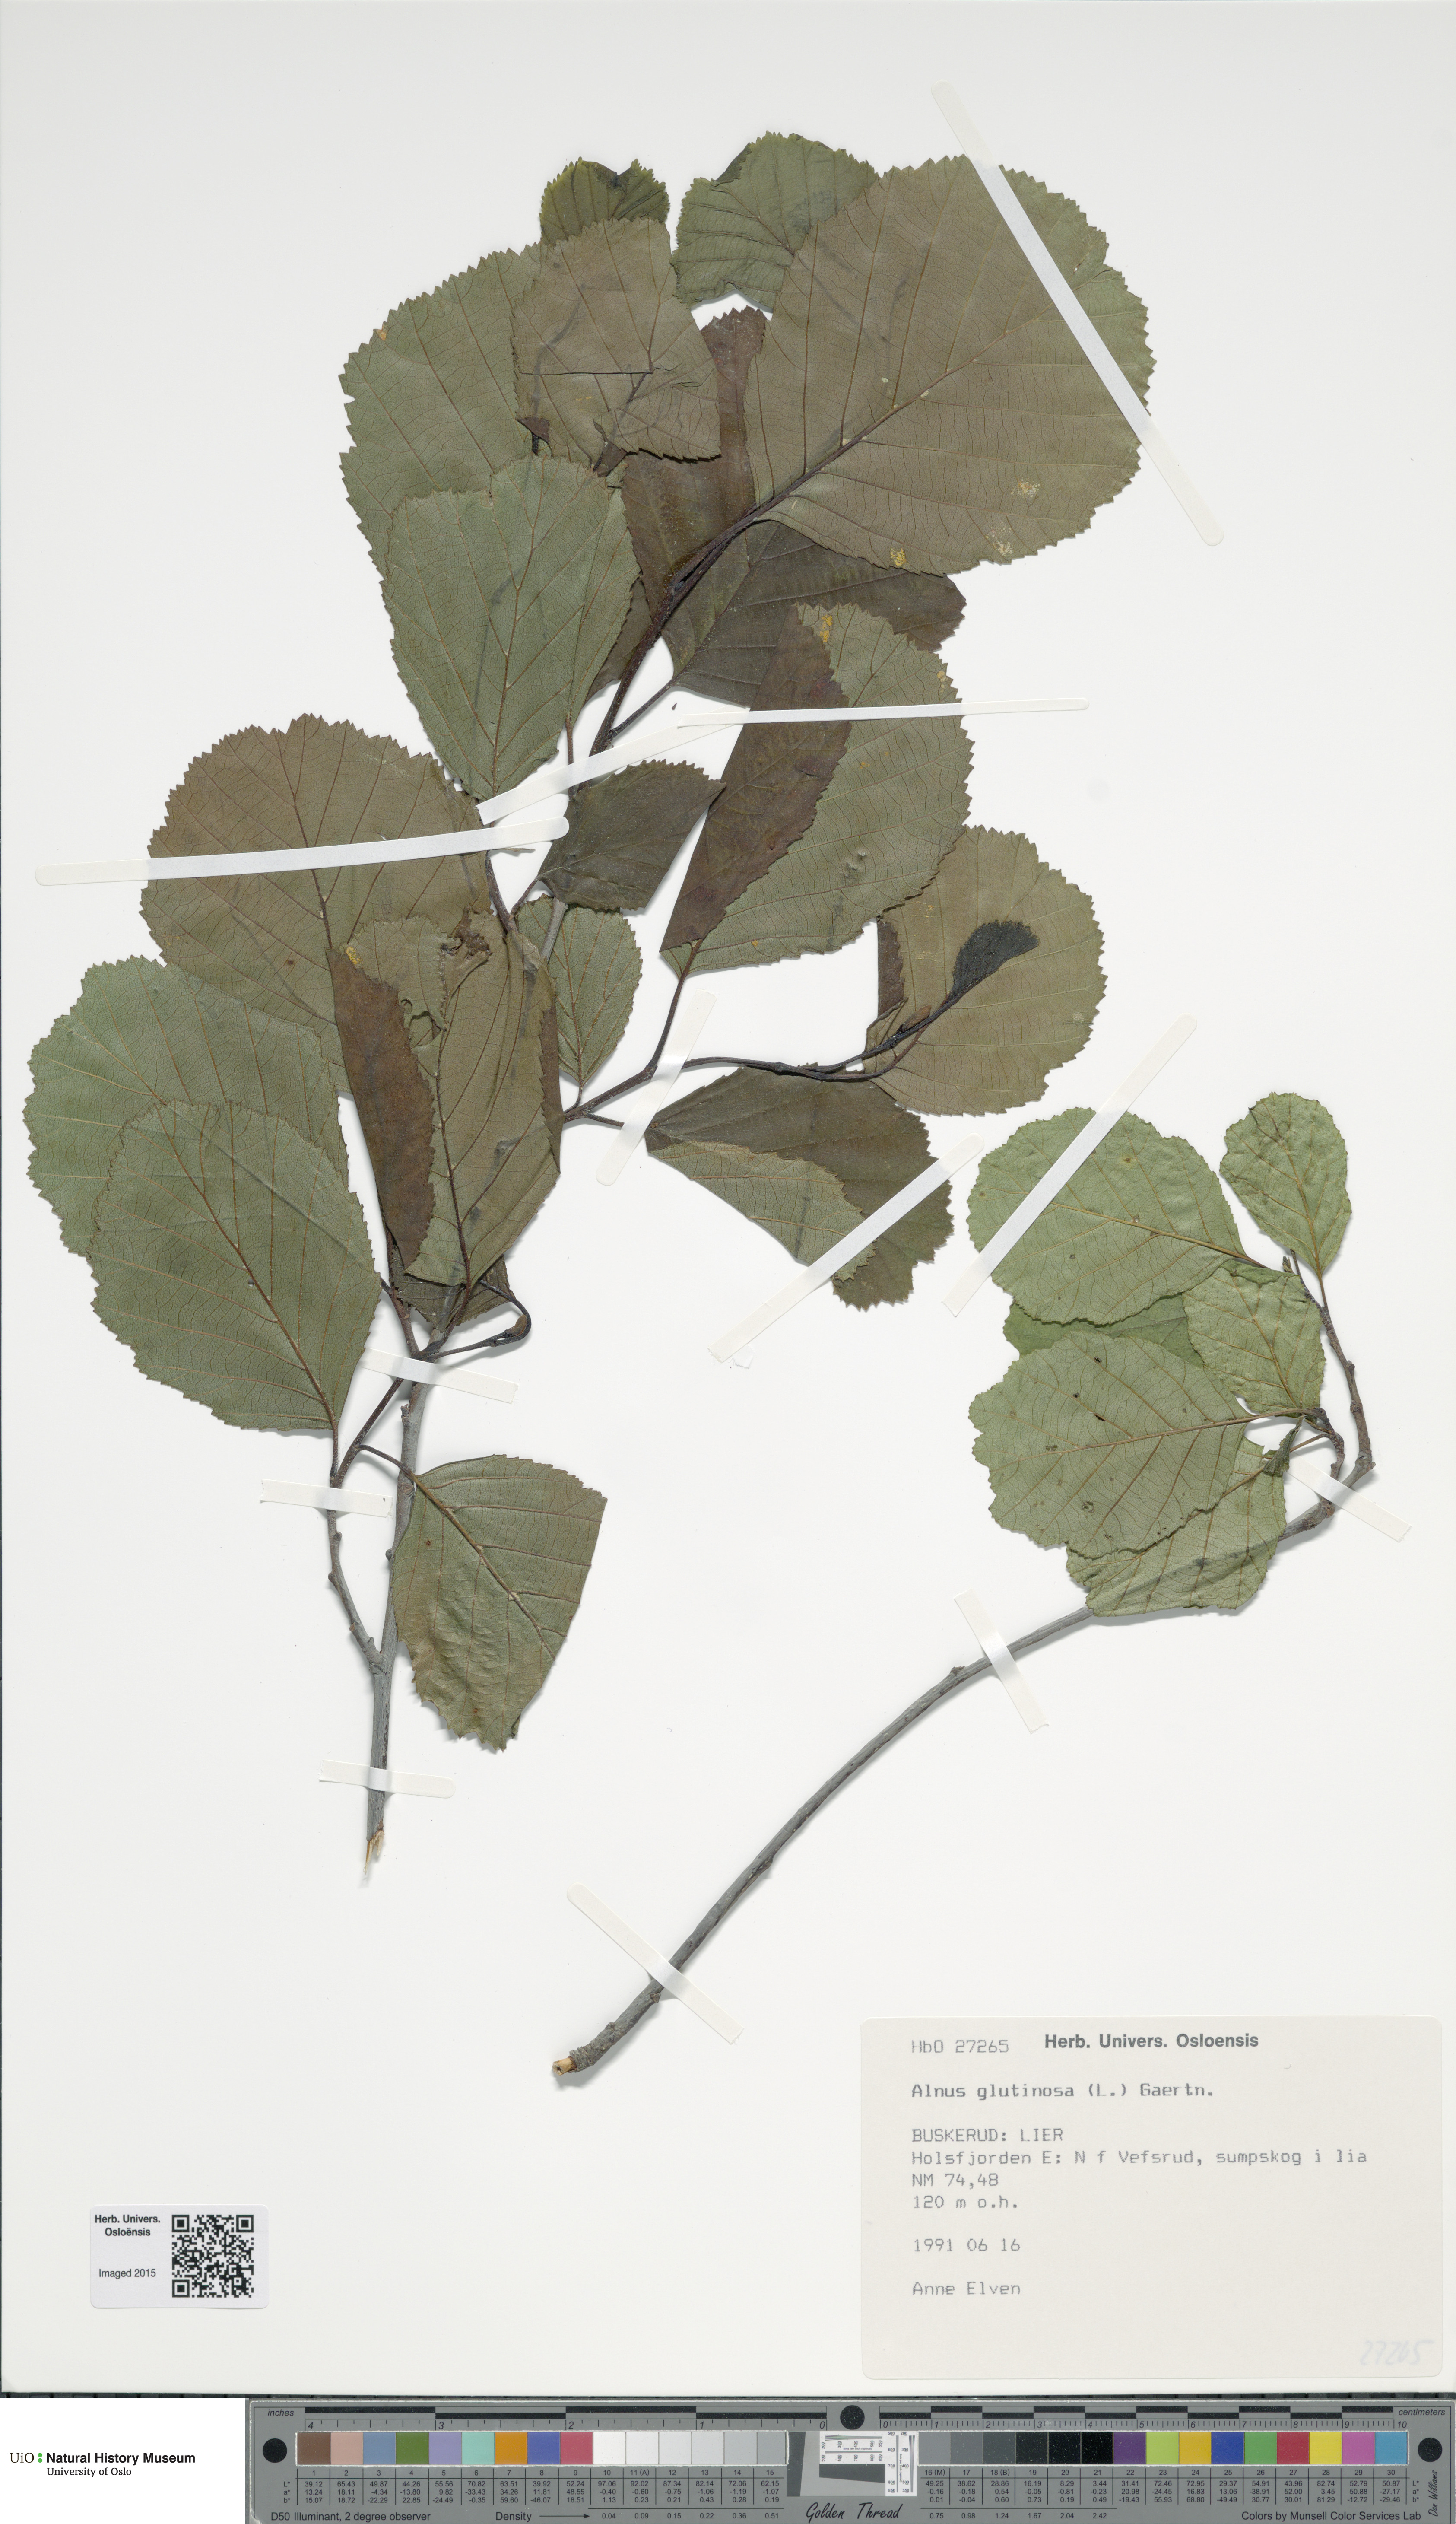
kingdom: Plantae
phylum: Tracheophyta
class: Magnoliopsida
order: Fagales
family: Betulaceae
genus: Alnus
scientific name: Alnus glutinosa
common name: Black alder
